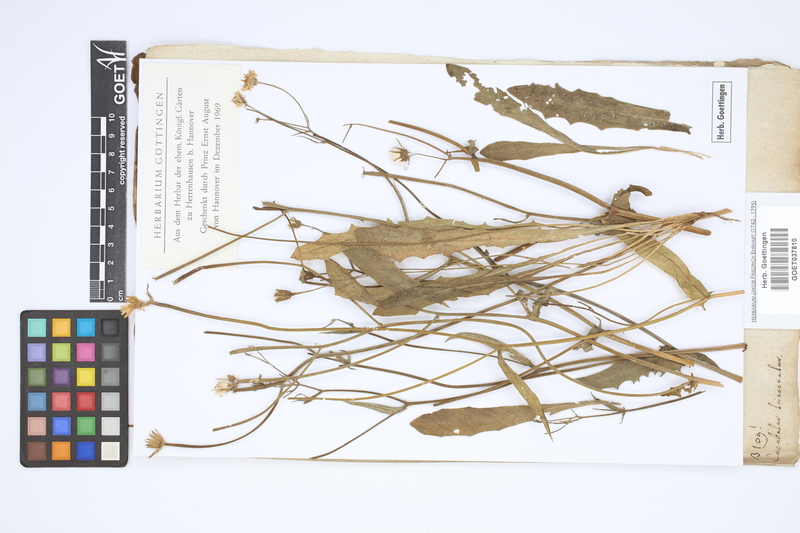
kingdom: Plantae
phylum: Tracheophyta
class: Magnoliopsida
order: Asterales
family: Asteraceae
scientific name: Asteraceae
